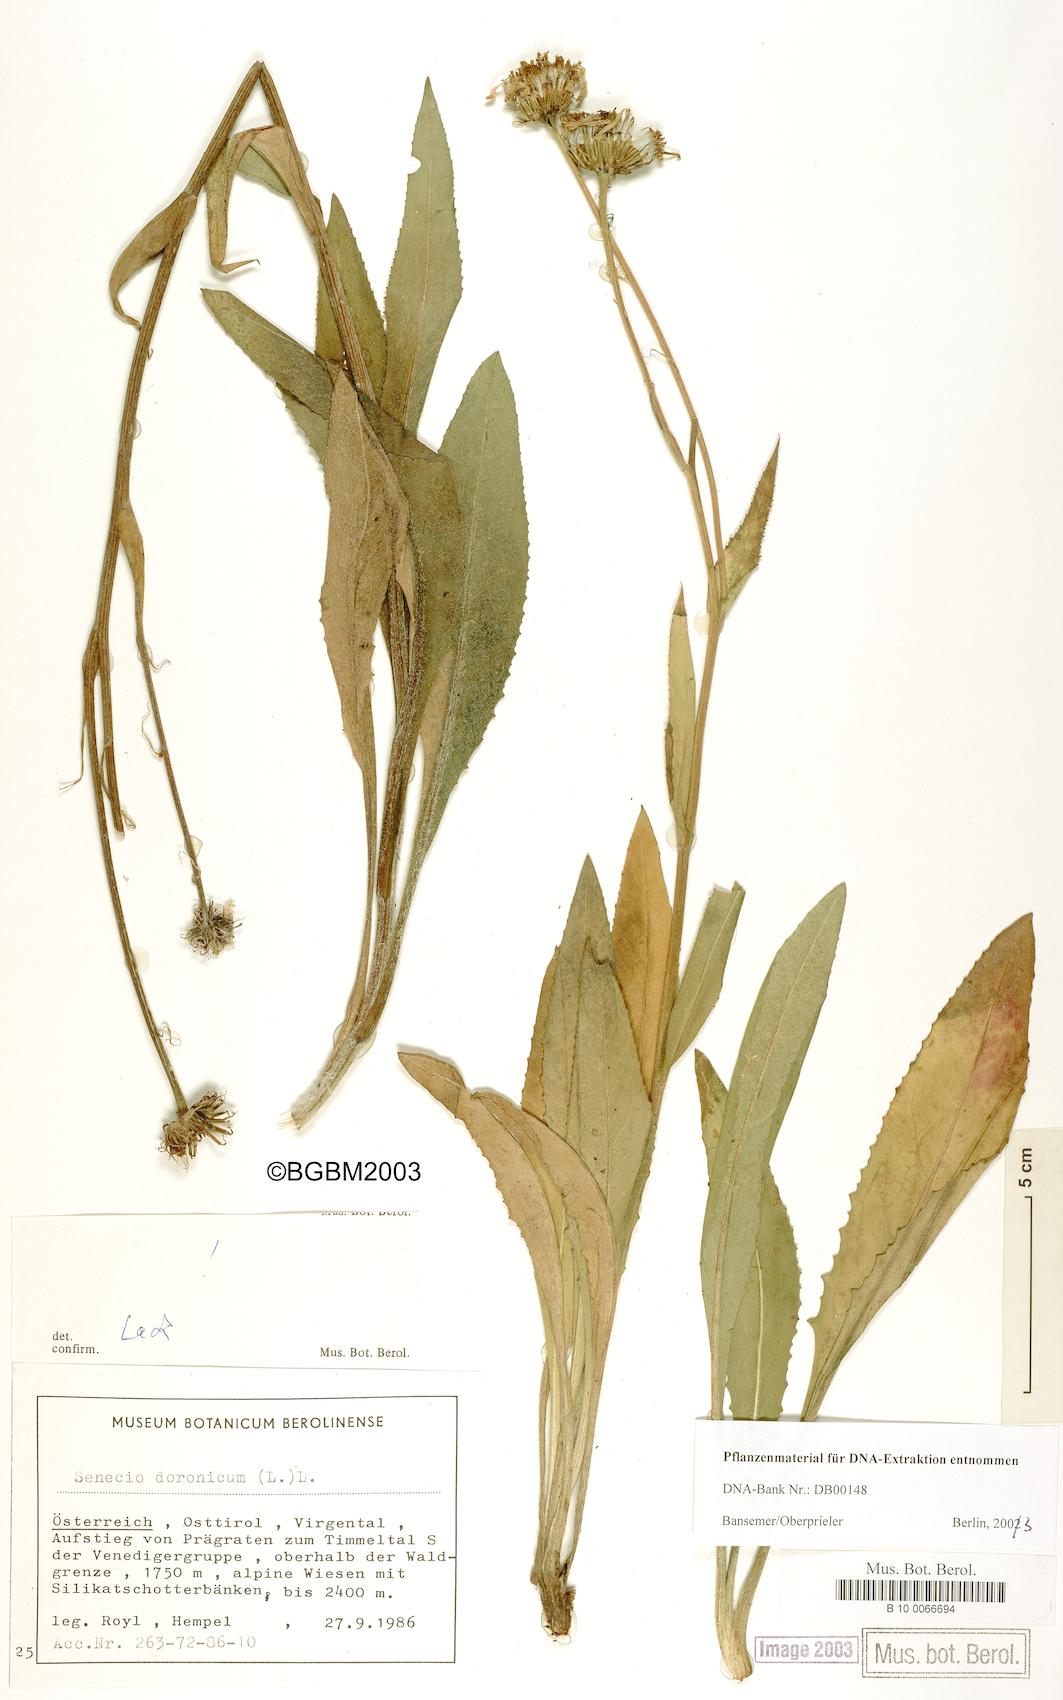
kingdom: Plantae
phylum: Tracheophyta
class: Magnoliopsida
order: Asterales
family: Asteraceae
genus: Senecio
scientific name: Senecio doronicum
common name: Chamois ragwort
